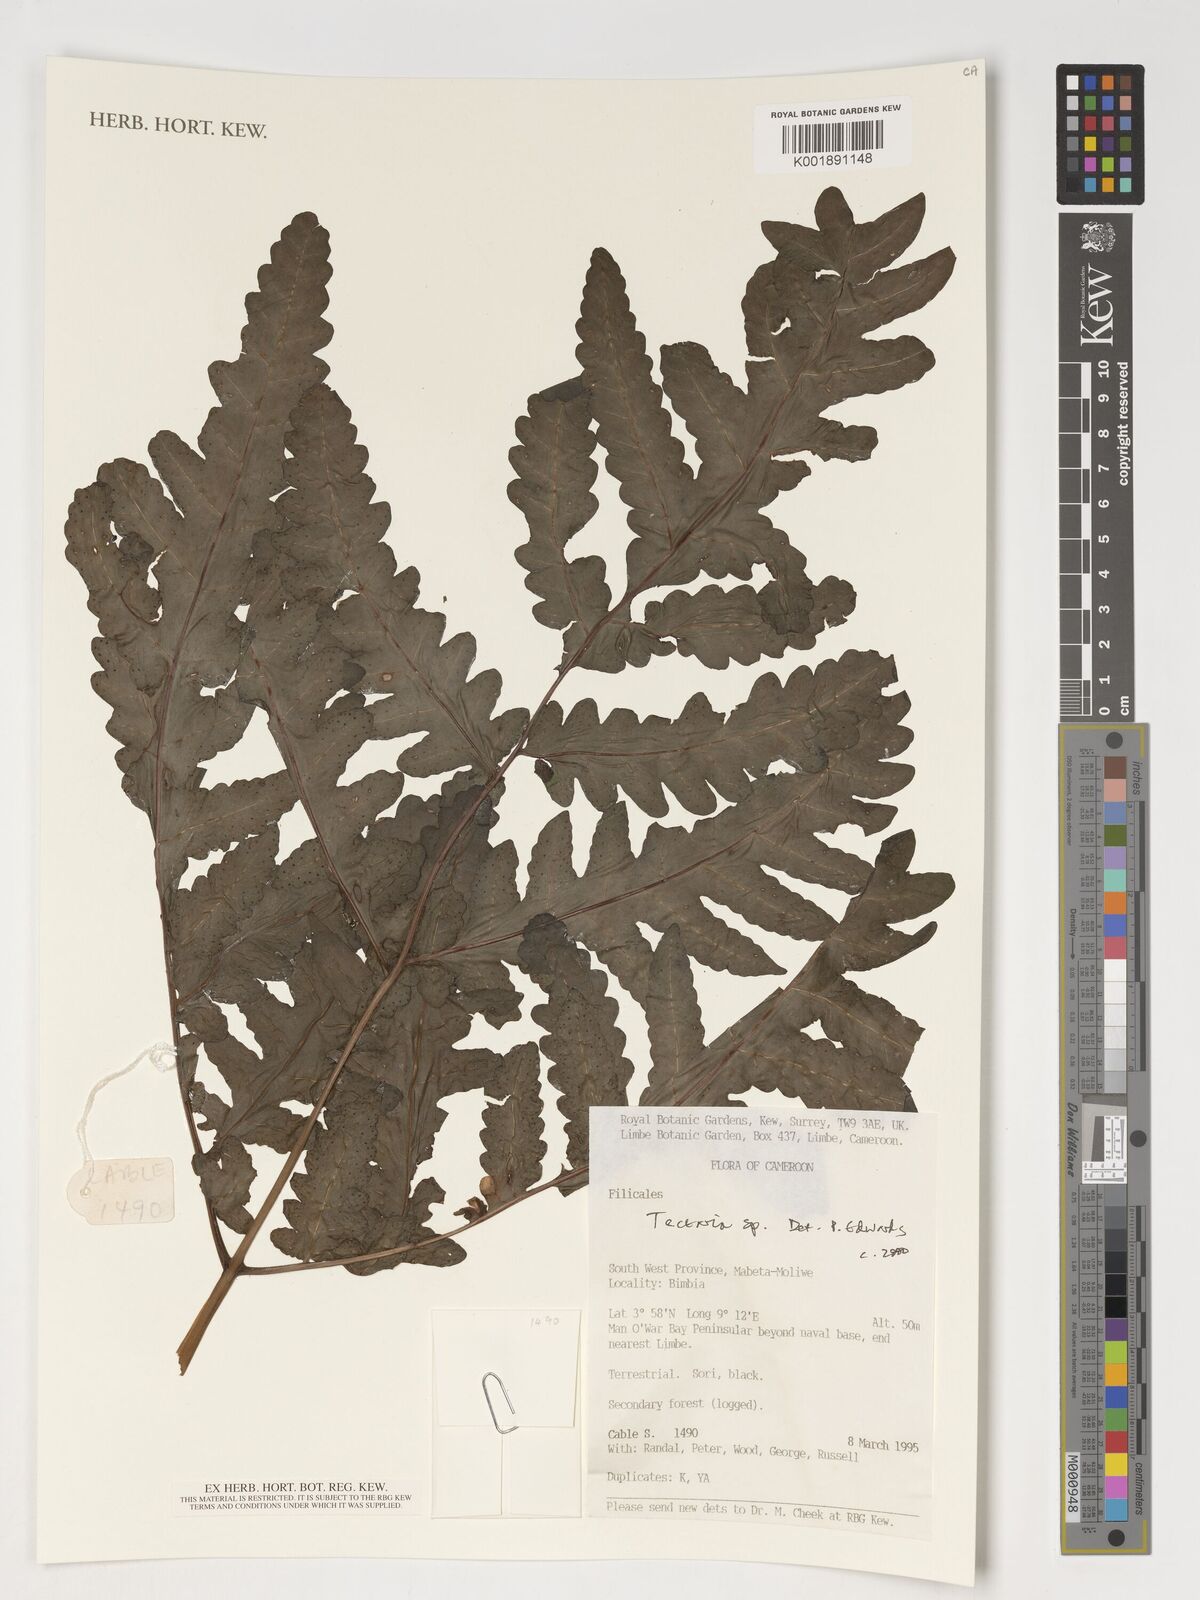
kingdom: Plantae
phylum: Tracheophyta
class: Polypodiopsida
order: Polypodiales
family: Tectariaceae
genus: Tectaria
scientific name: Tectaria
